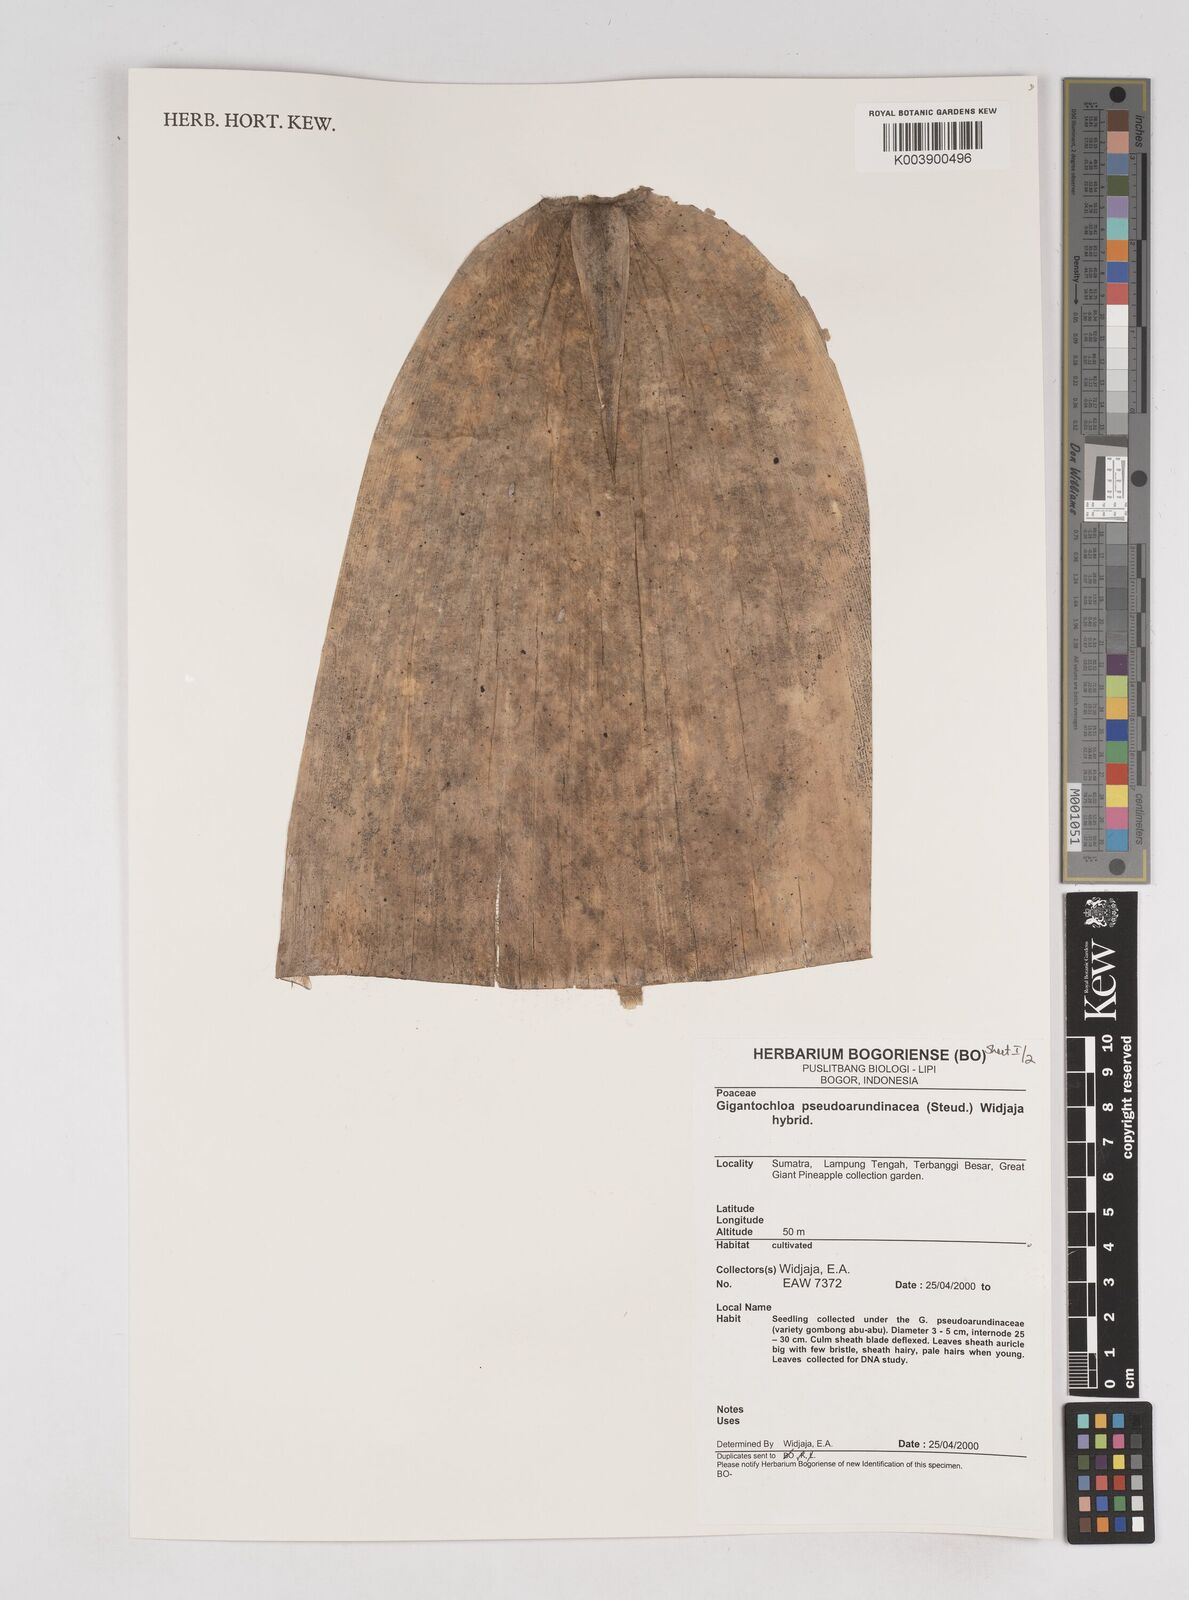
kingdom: Plantae
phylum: Tracheophyta
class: Liliopsida
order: Poales
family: Poaceae
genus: Gigantochloa
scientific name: Gigantochloa verticillata
